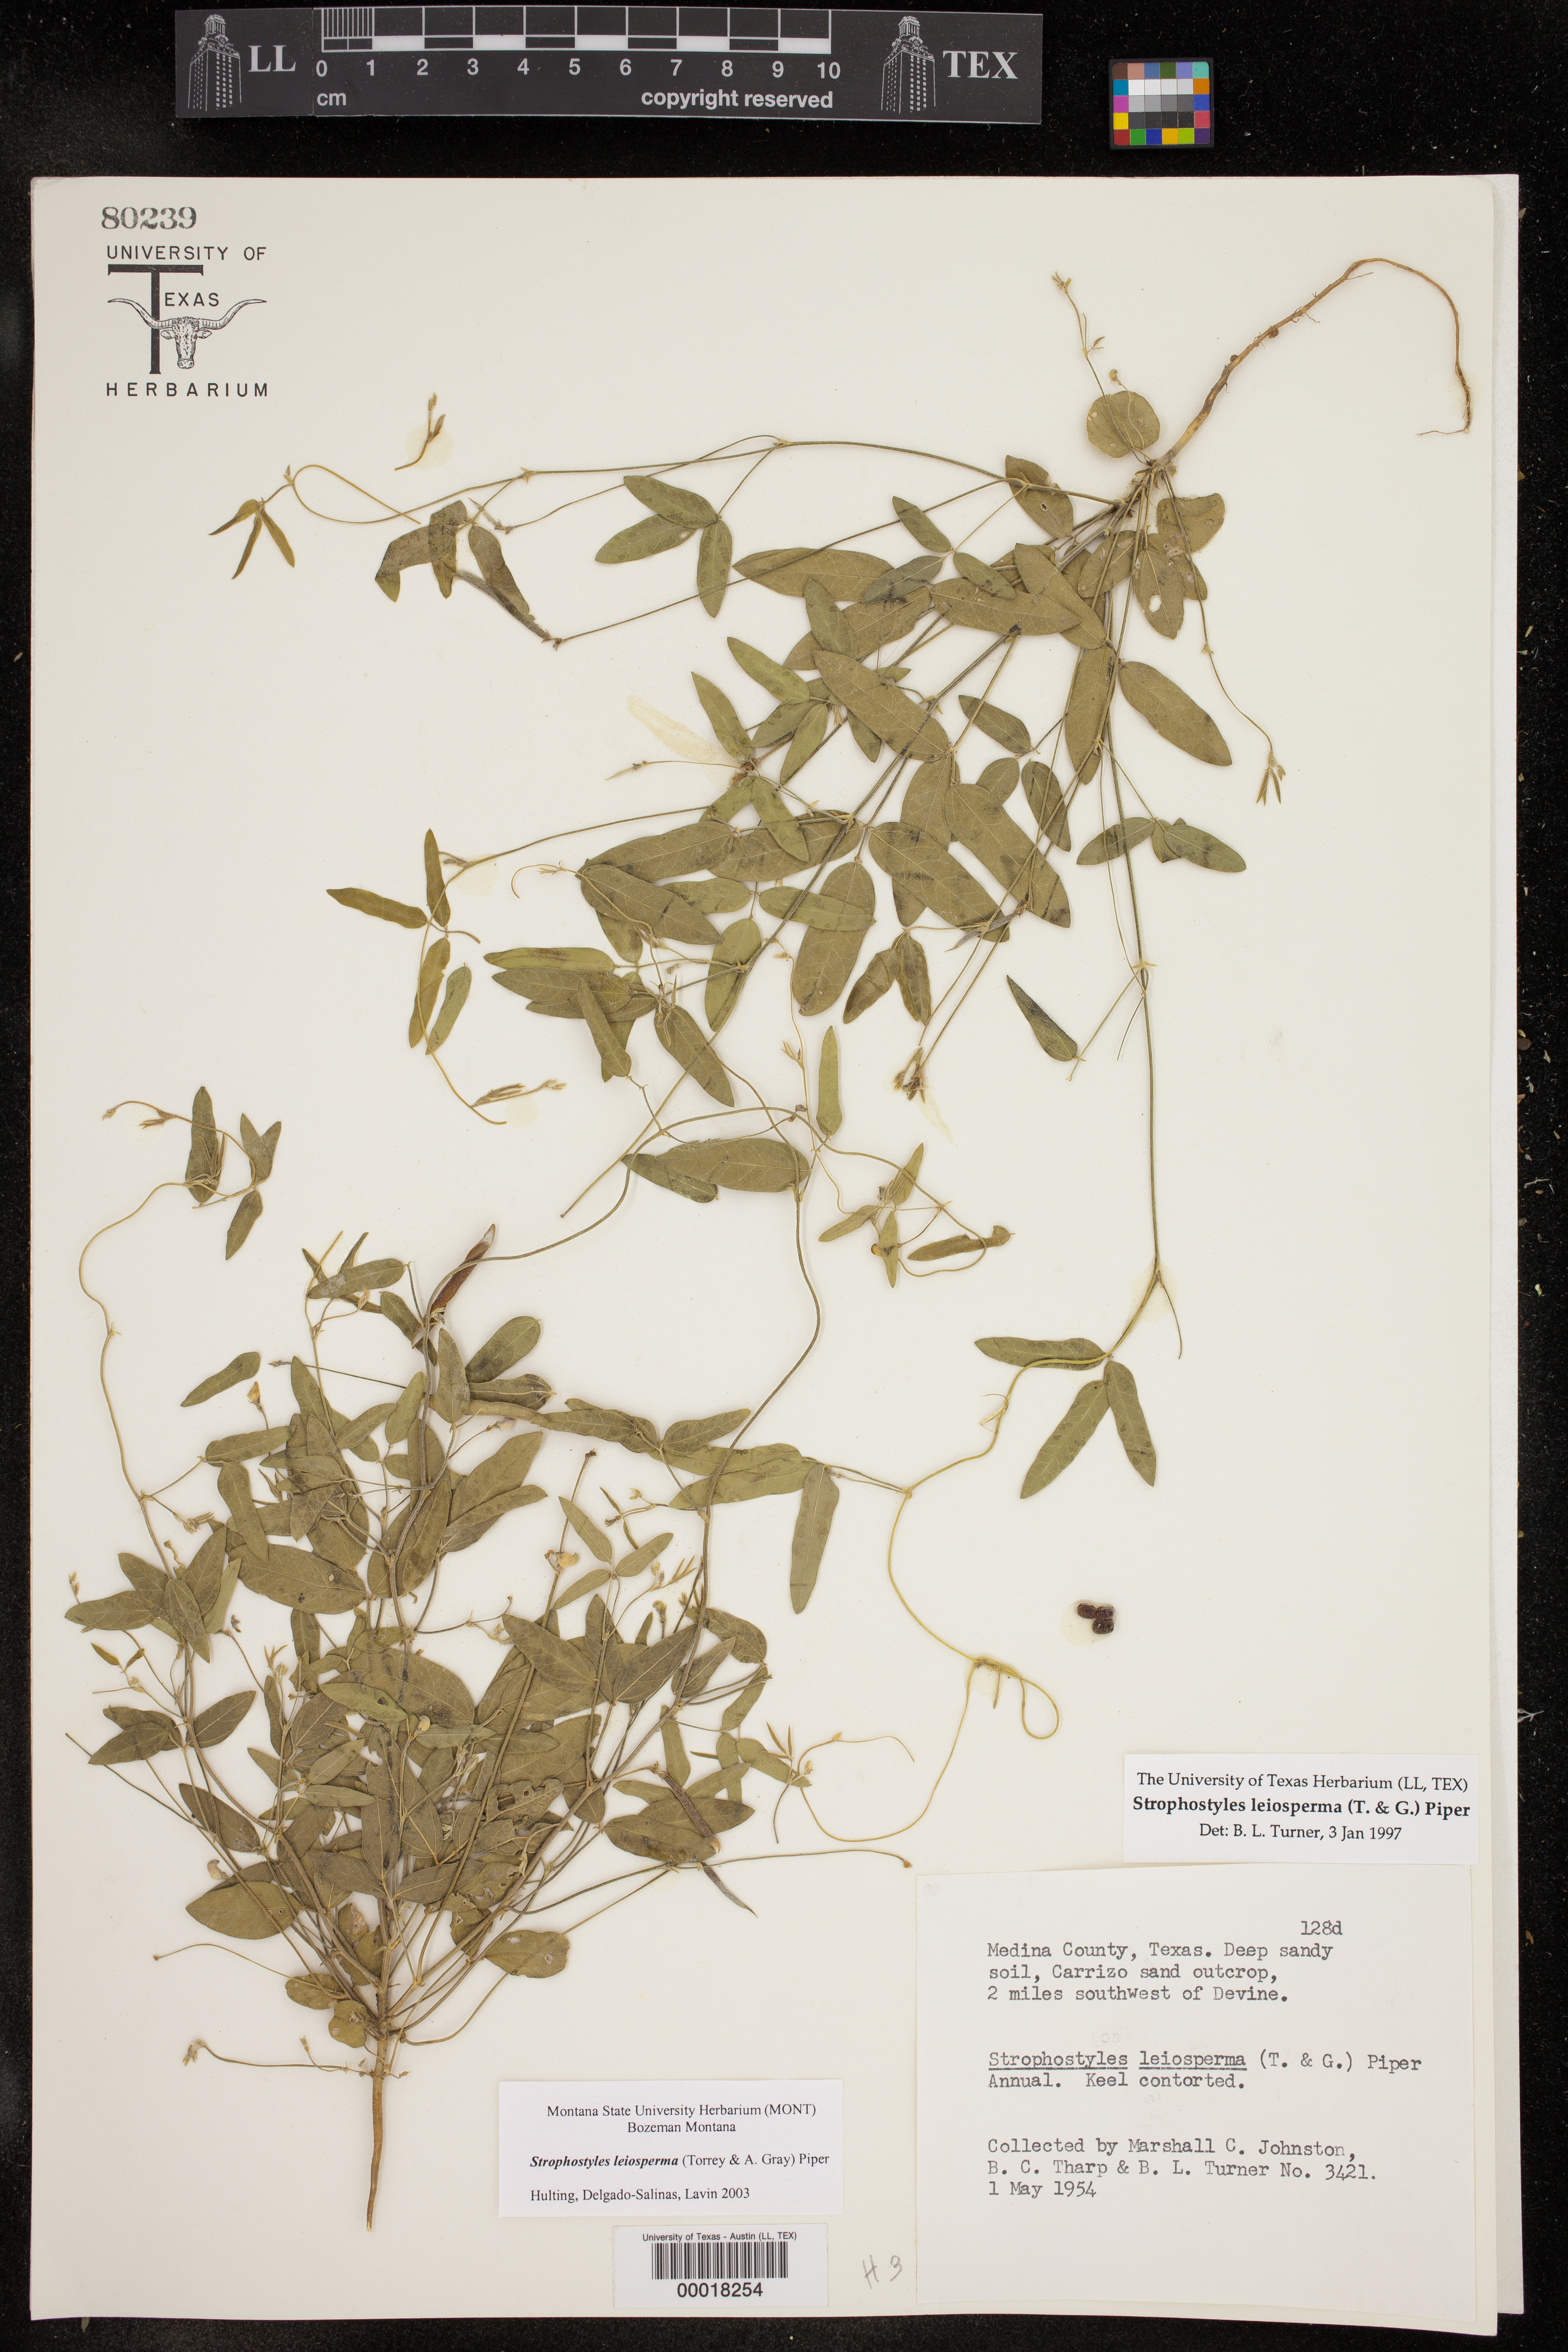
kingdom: Plantae
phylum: Tracheophyta
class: Magnoliopsida
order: Fabales
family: Fabaceae
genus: Strophostyles
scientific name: Strophostyles leiosperma
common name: Smooth-seed wild bean
